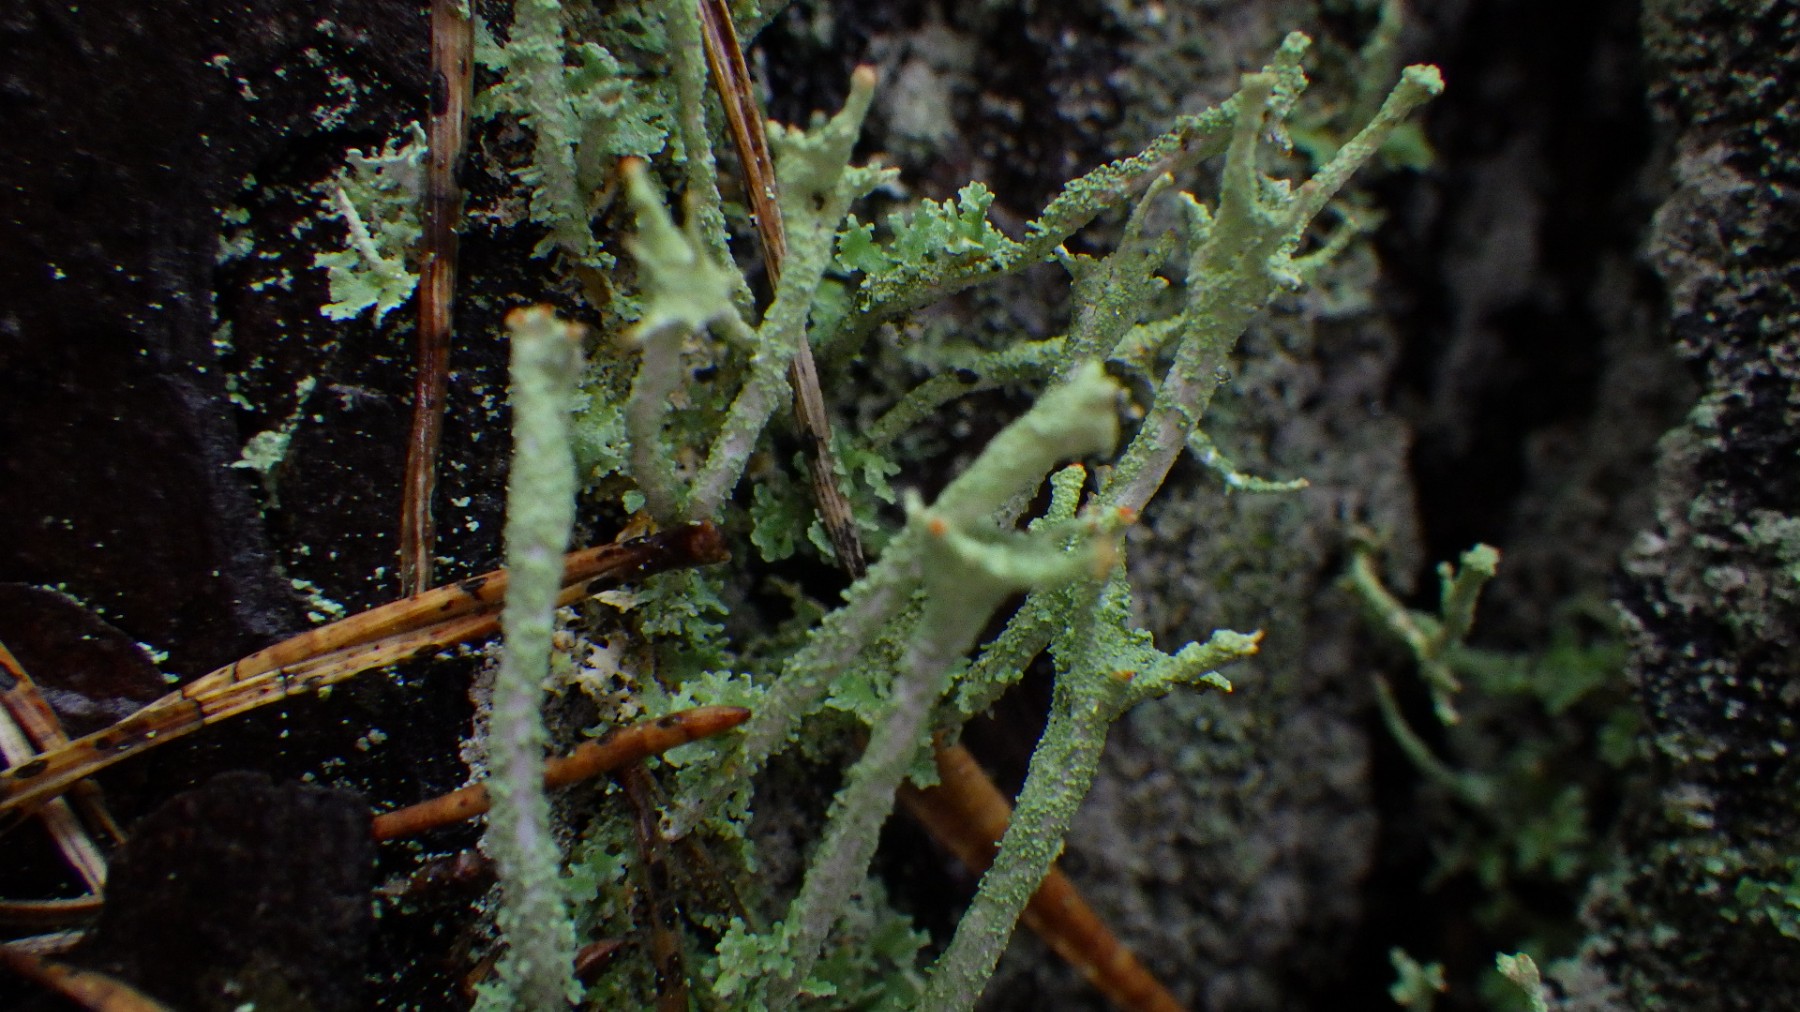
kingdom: Fungi
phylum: Ascomycota
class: Lecanoromycetes
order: Lecanorales
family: Cladoniaceae
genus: Cladonia
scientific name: Cladonia polydactyla
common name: vifte-bægerlav
